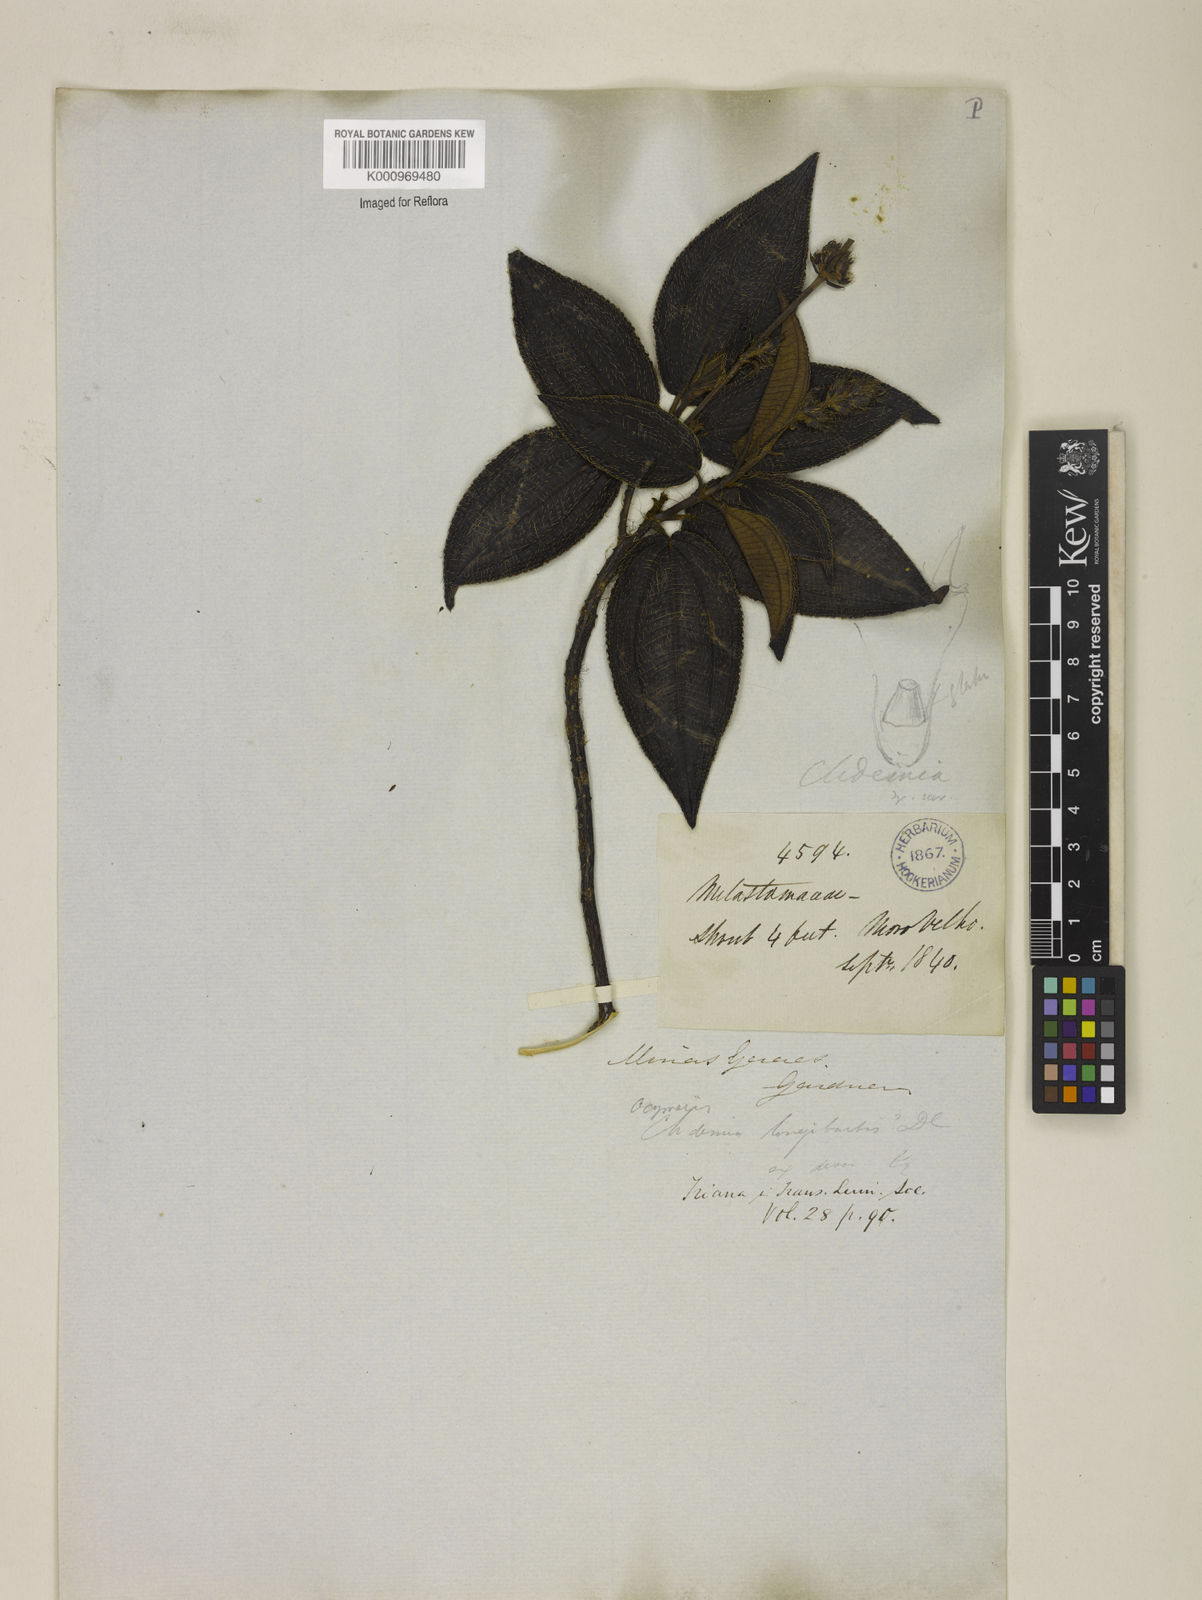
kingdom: Plantae
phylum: Tracheophyta
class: Magnoliopsida
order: Myrtales
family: Melastomataceae
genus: Miconia
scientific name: Miconia longibarbis
